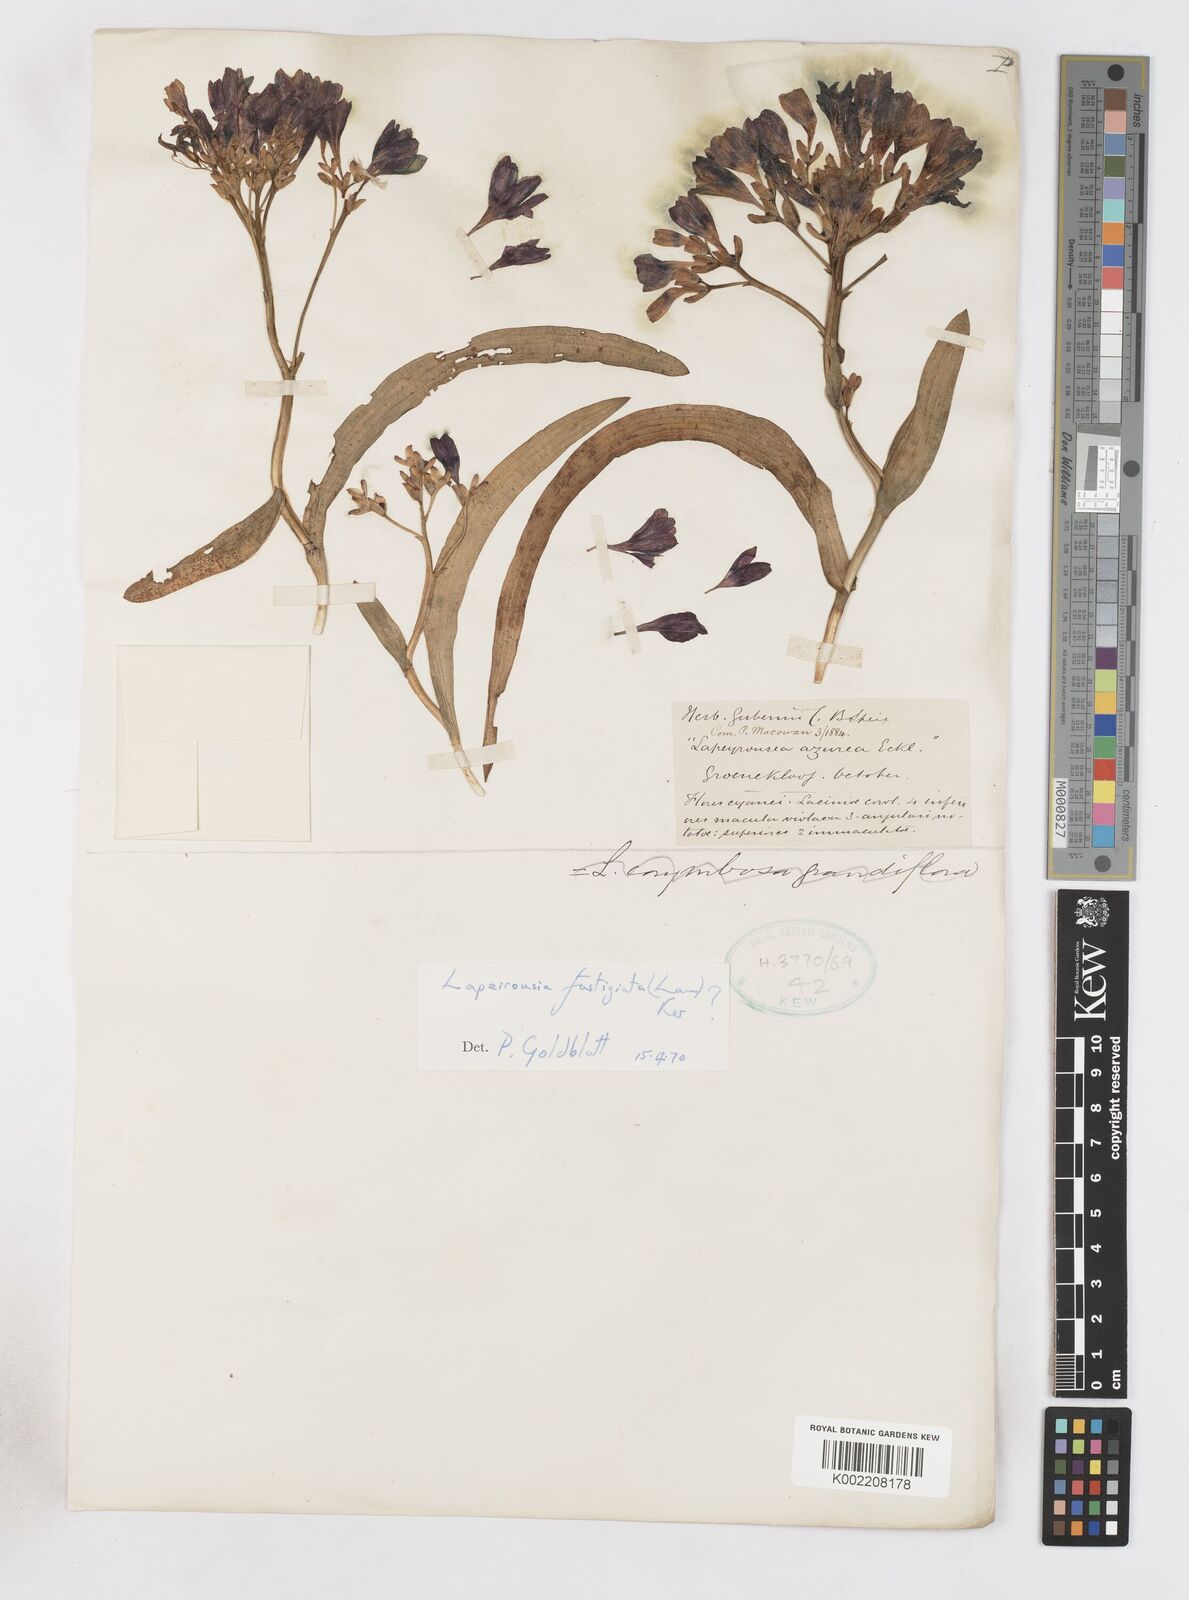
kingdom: Plantae
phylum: Tracheophyta
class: Liliopsida
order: Asparagales
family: Iridaceae
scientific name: Iridaceae
